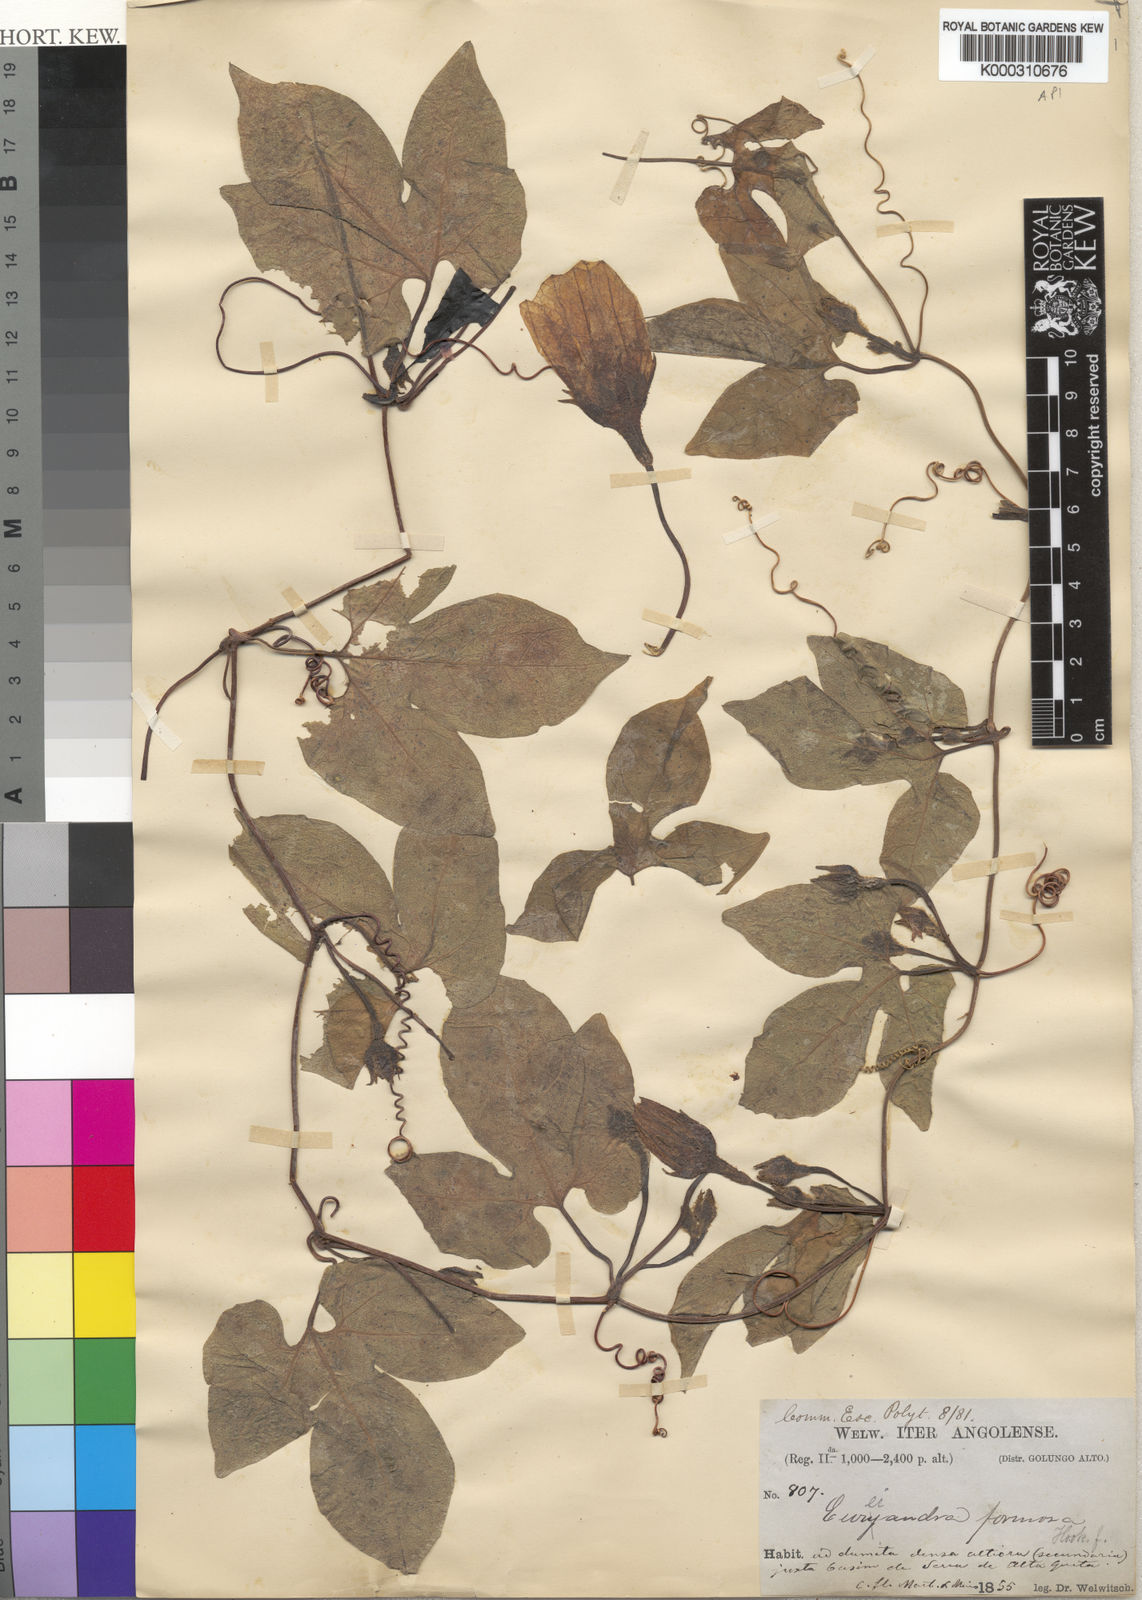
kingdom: Plantae
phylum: Tracheophyta
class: Magnoliopsida
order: Cucurbitales
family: Cucurbitaceae
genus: Eureiandra
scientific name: Eureiandra formosa
